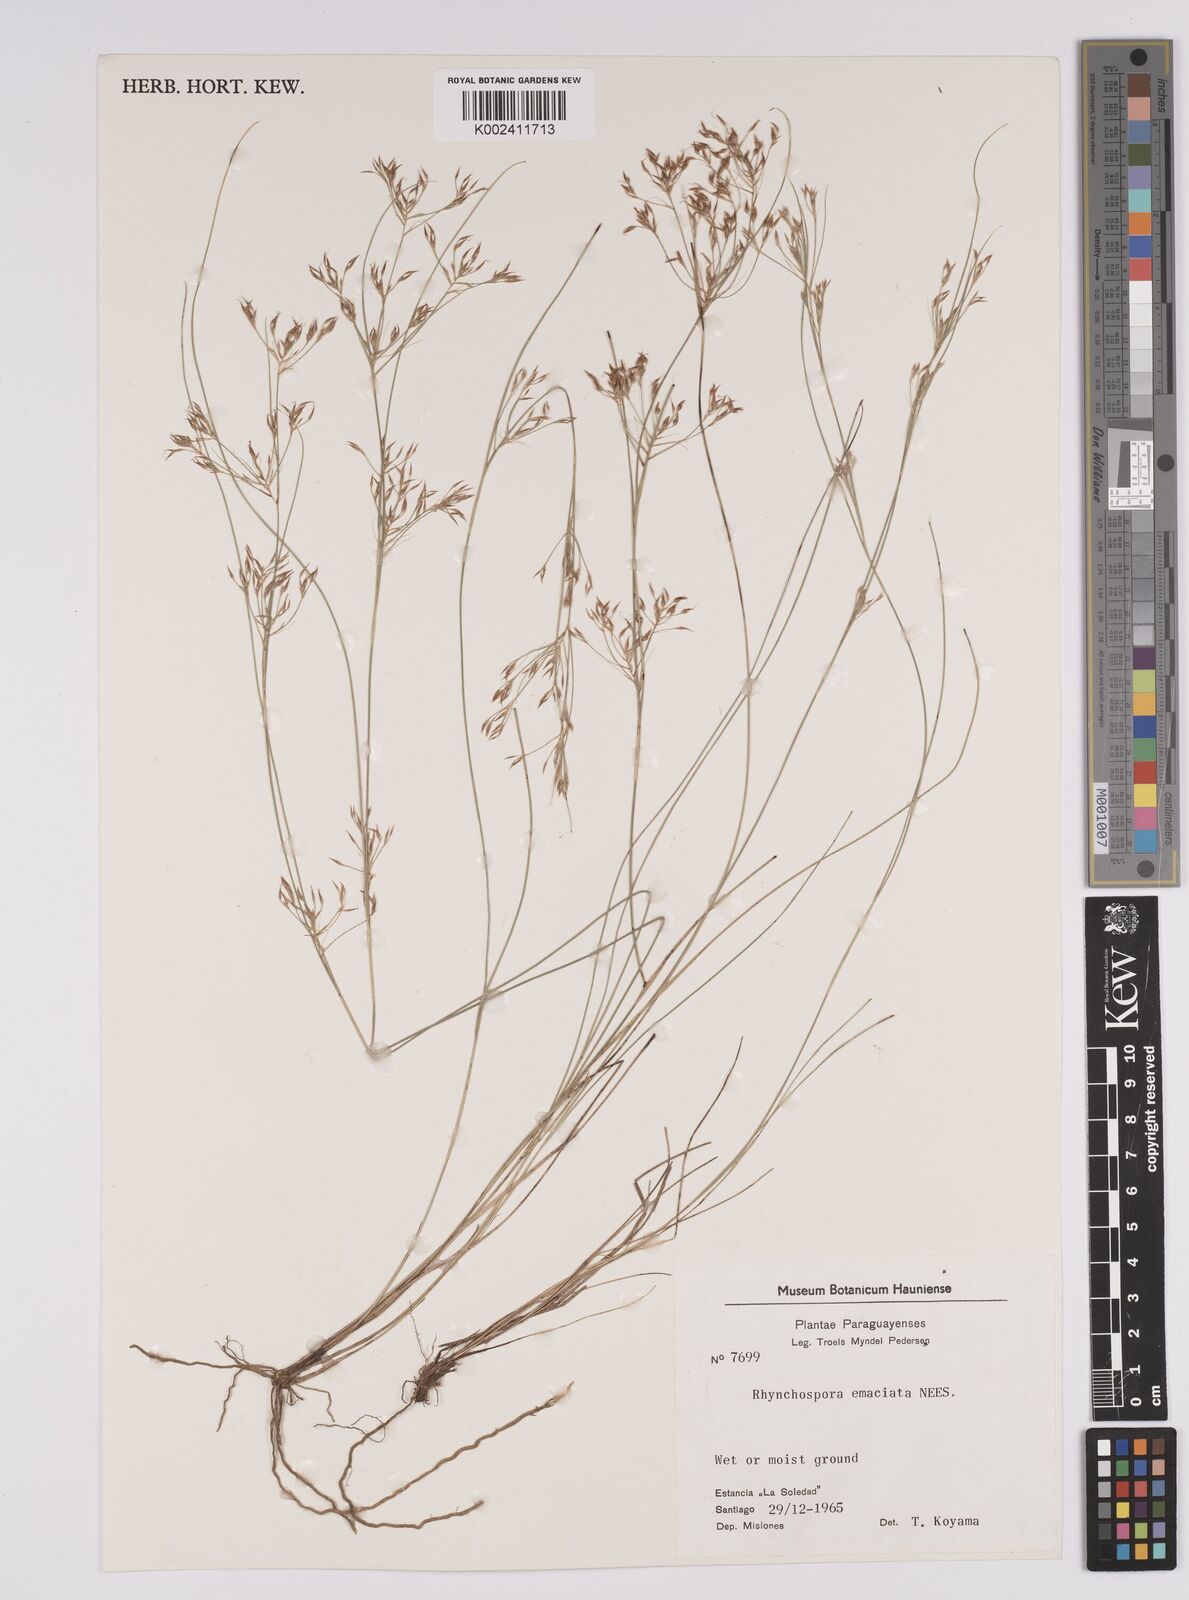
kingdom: Plantae
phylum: Tracheophyta
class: Liliopsida
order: Poales
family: Cyperaceae
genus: Rhynchospora
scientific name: Rhynchospora emaciata
